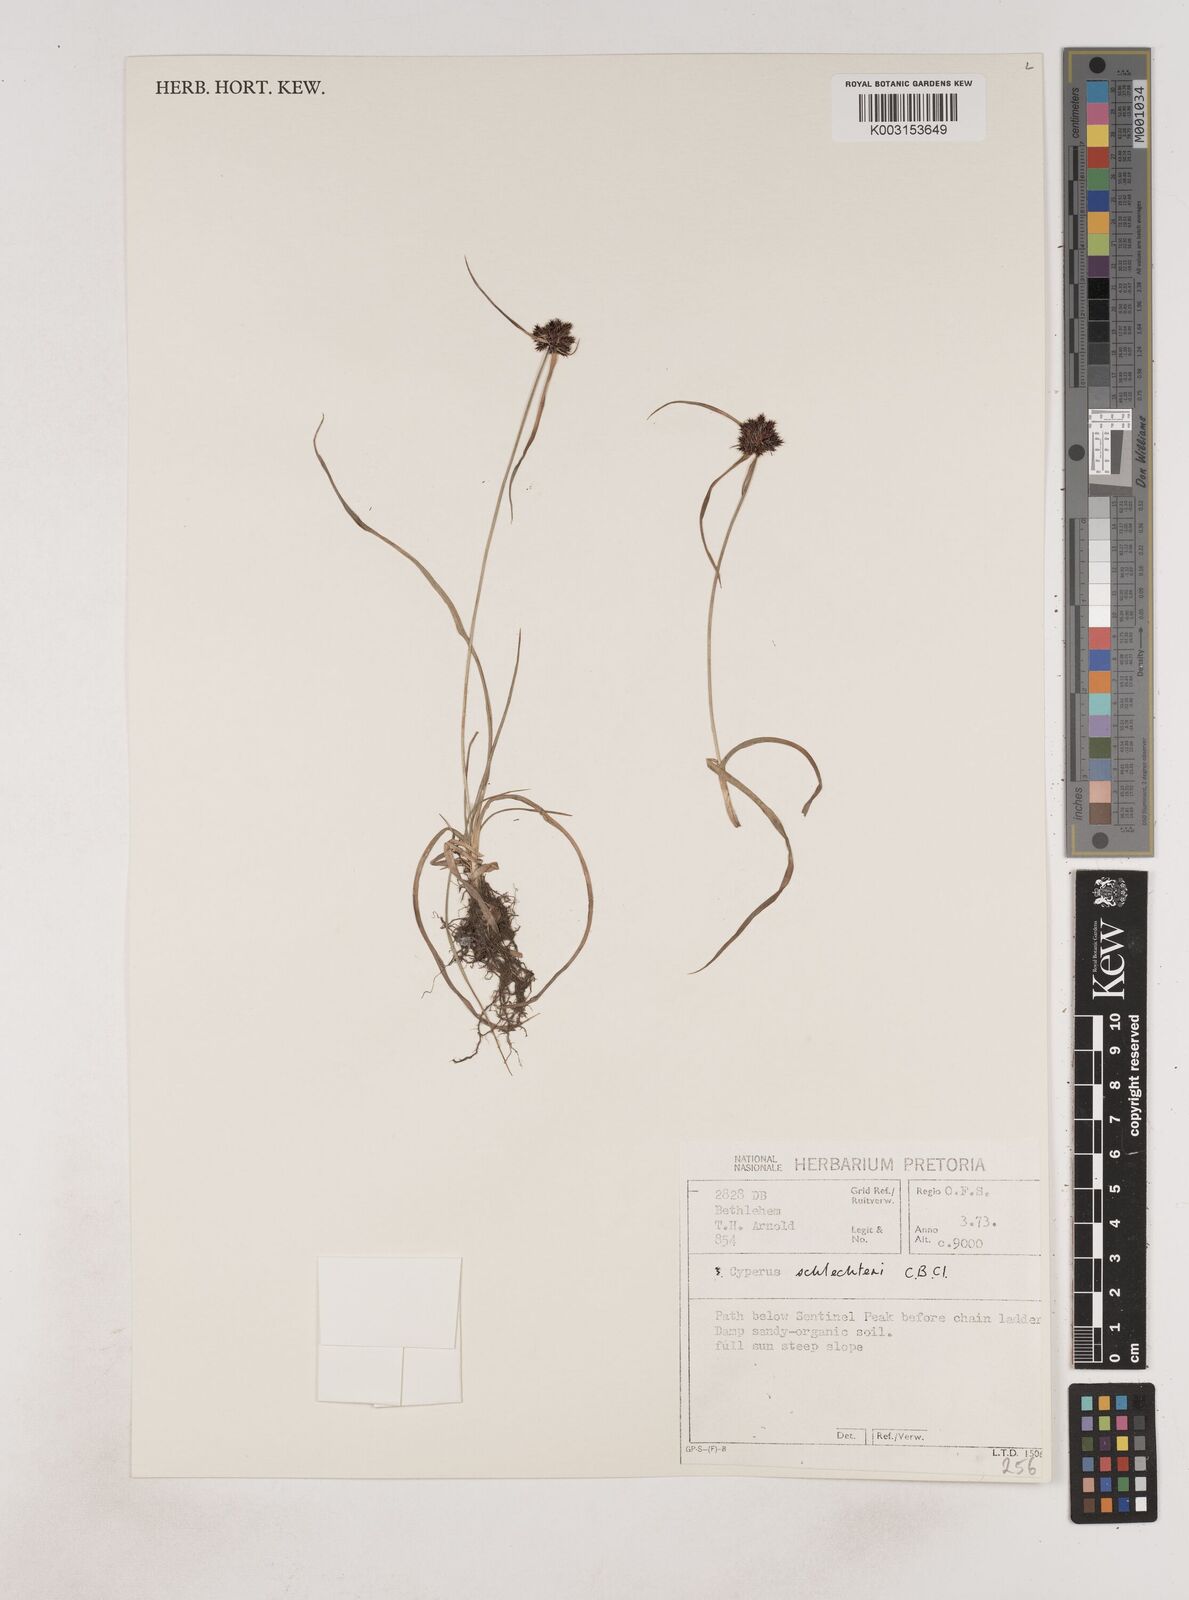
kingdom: Plantae
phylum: Tracheophyta
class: Liliopsida
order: Poales
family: Cyperaceae
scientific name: Cyperaceae
